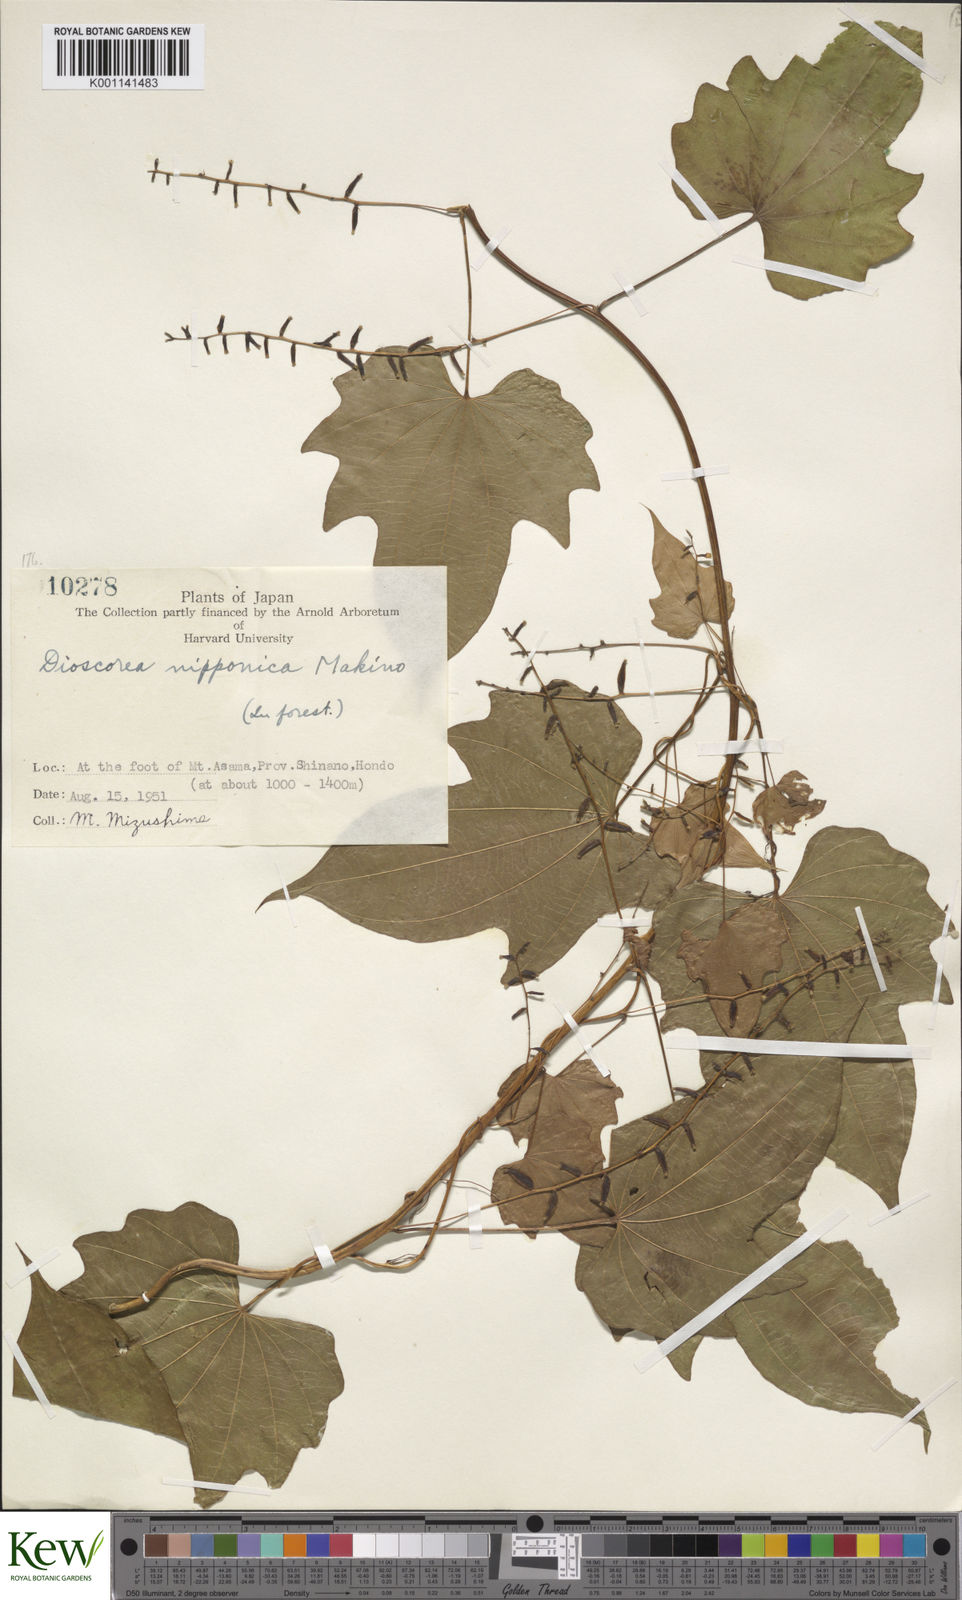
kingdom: Plantae
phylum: Tracheophyta
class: Liliopsida
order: Dioscoreales
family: Dioscoreaceae
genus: Dioscorea
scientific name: Dioscorea nipponica
